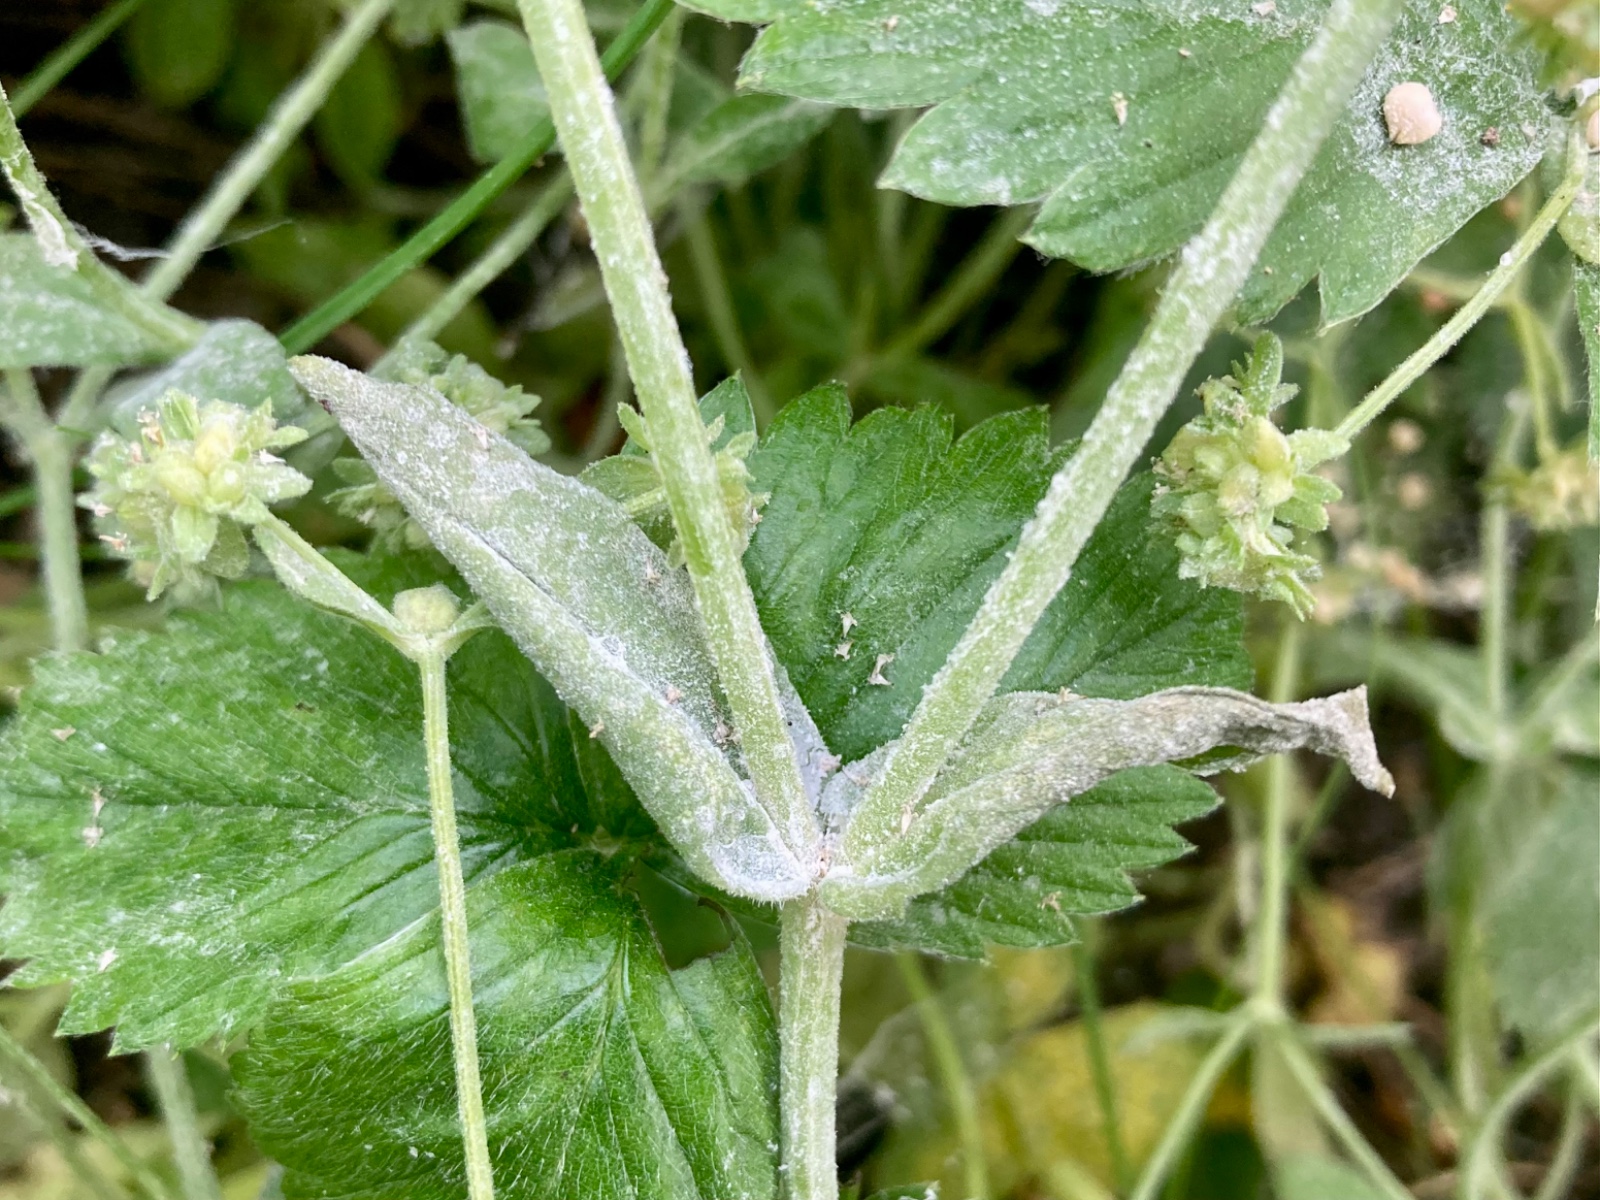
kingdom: Fungi
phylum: Ascomycota
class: Leotiomycetes
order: Helotiales
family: Erysiphaceae
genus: Golovinomyces
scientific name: Golovinomyces orontii
